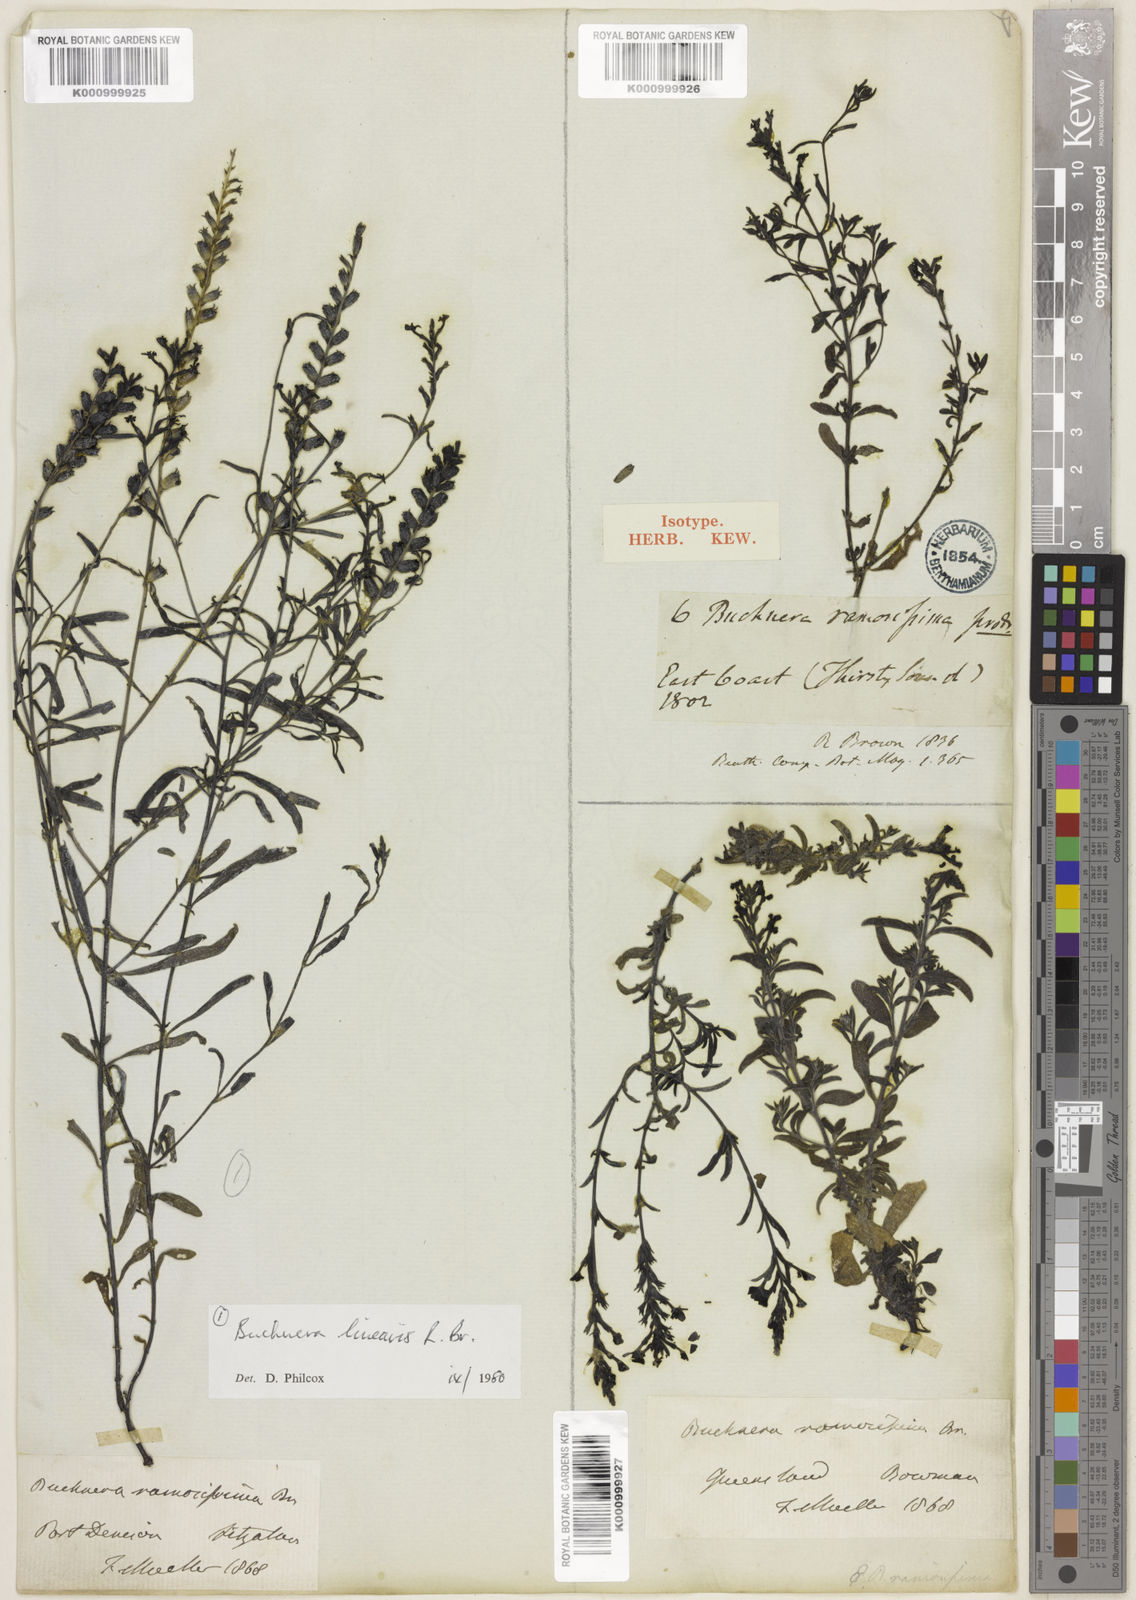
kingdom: Plantae
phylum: Tracheophyta
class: Magnoliopsida
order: Lamiales
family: Orobanchaceae
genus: Buchnera
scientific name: Buchnera ramosissima
